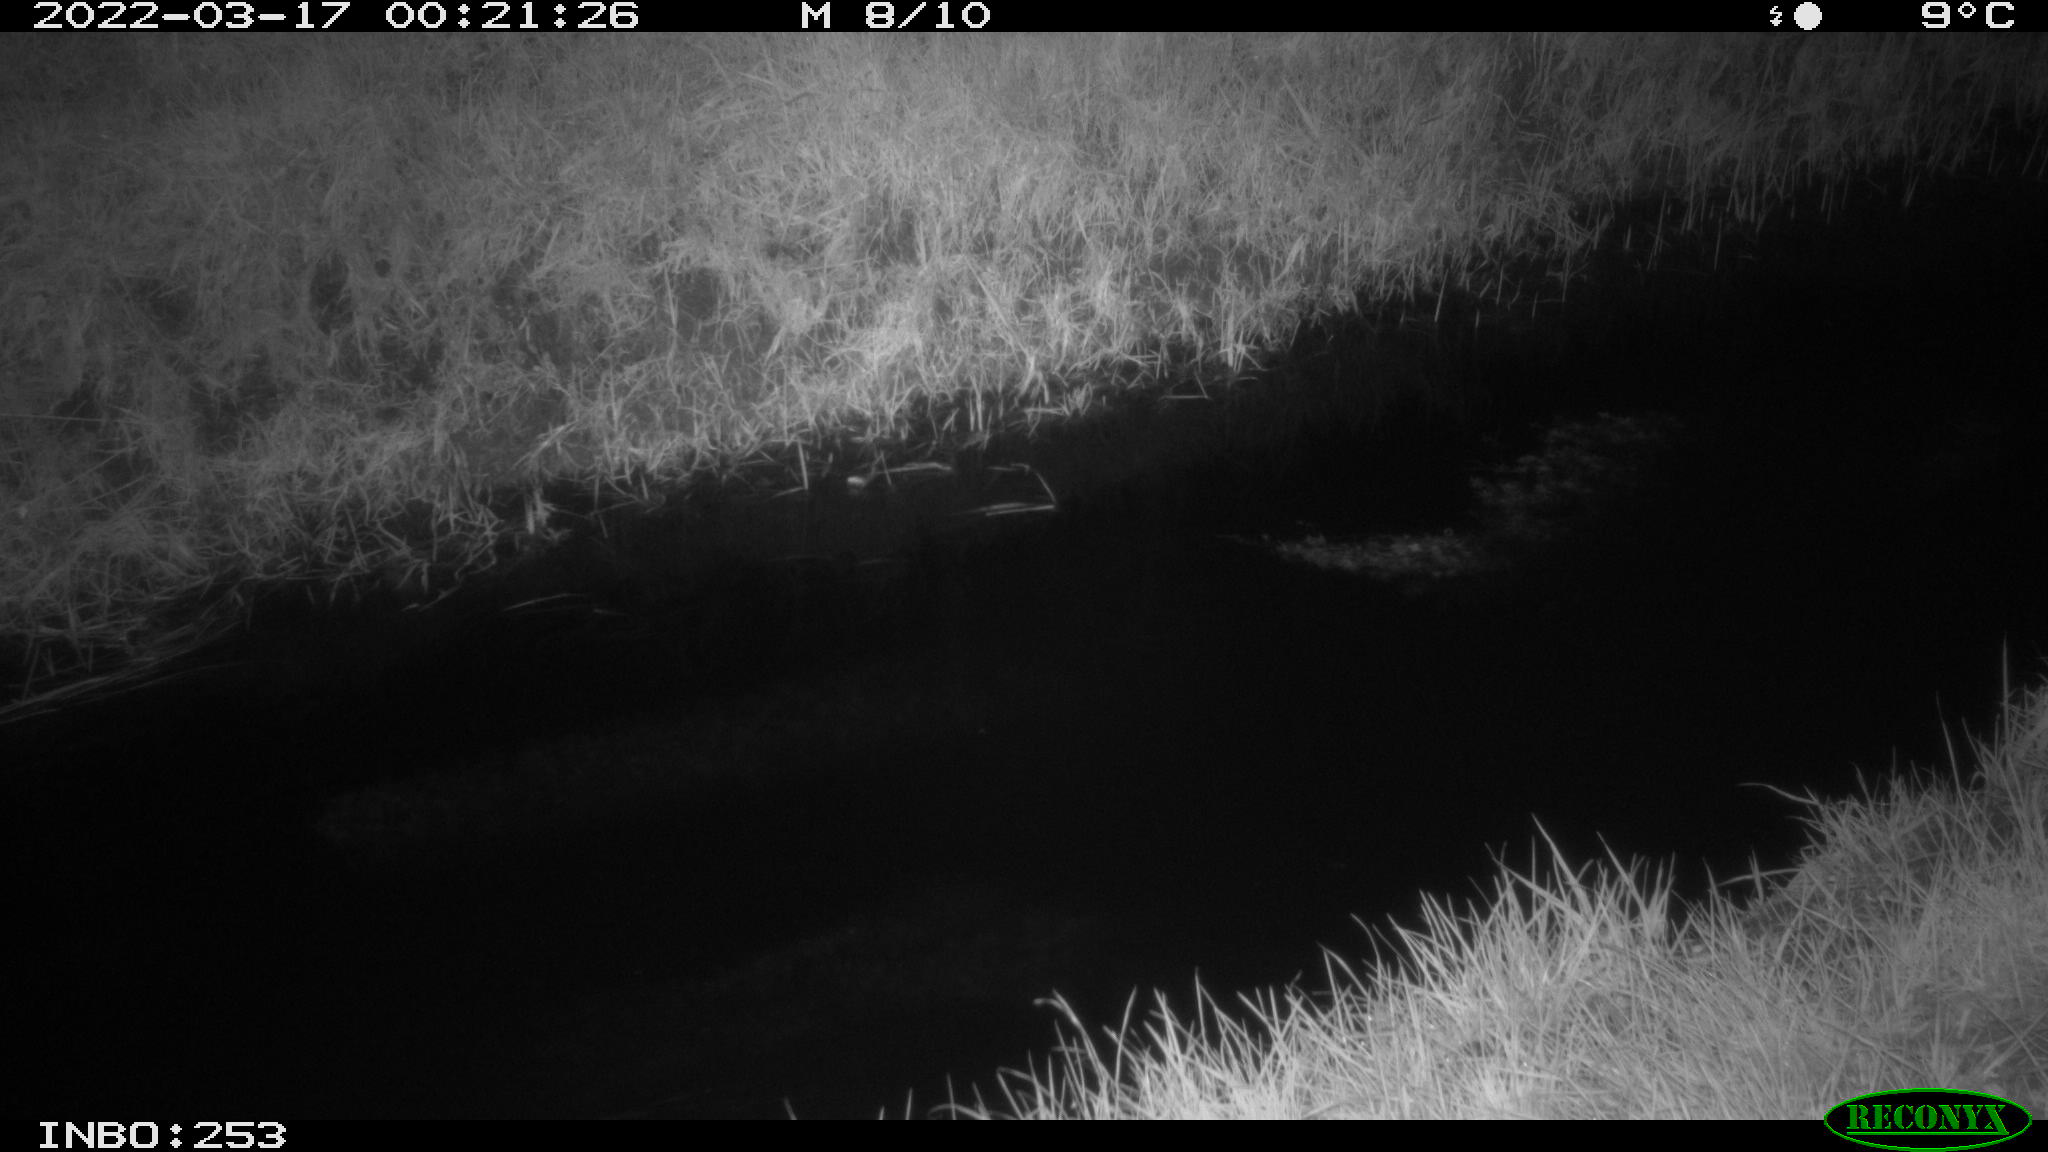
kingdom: Animalia
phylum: Chordata
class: Aves
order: Anseriformes
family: Anatidae
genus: Anas
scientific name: Anas platyrhynchos
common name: Mallard
